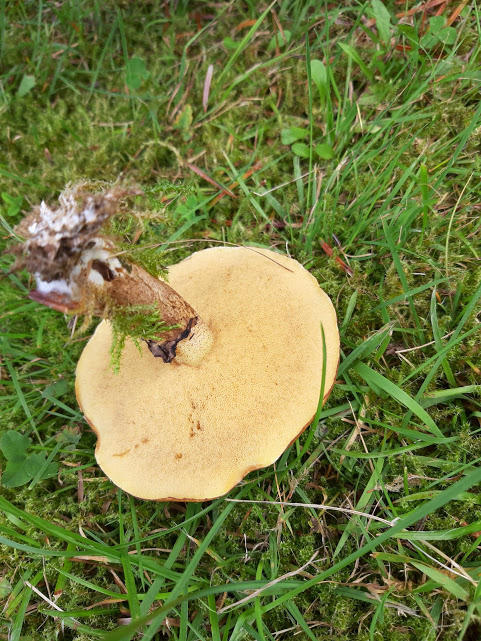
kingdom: Fungi
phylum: Basidiomycota
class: Agaricomycetes
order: Boletales
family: Suillaceae
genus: Suillus
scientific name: Suillus luteus
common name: brungul slimrørhat
